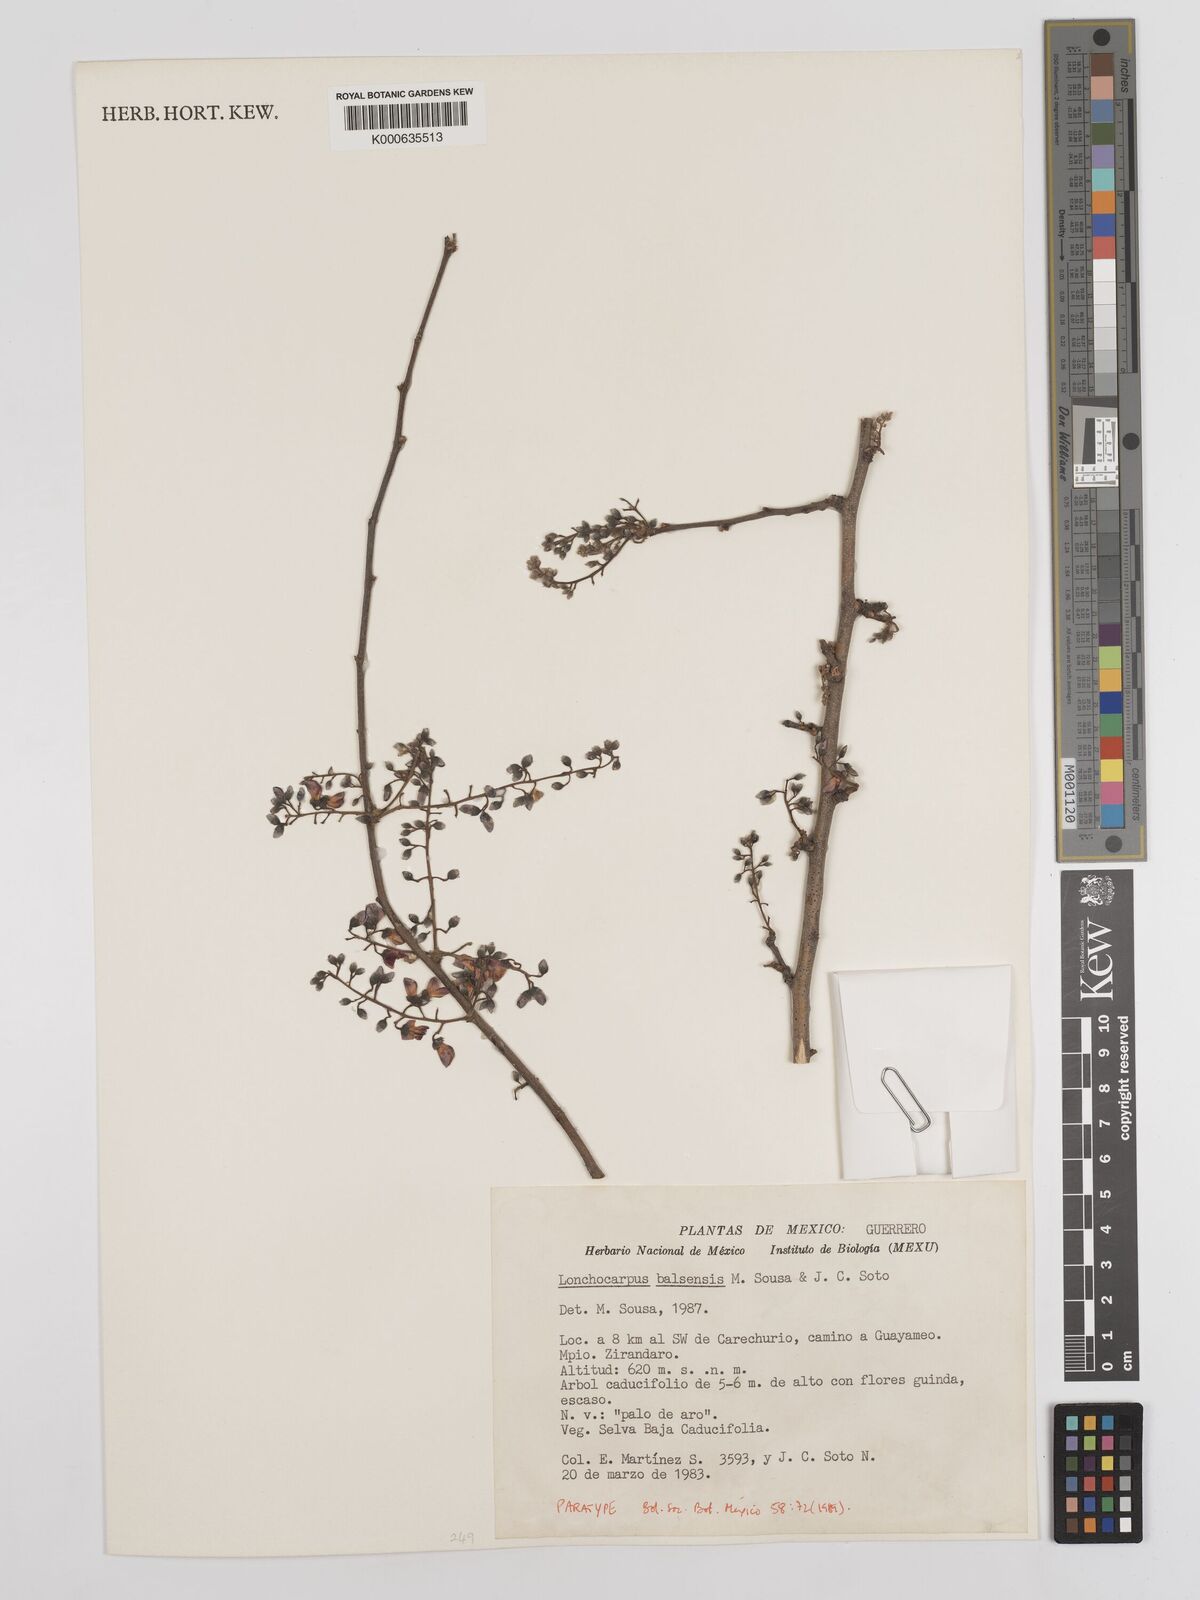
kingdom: Plantae
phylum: Tracheophyta
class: Magnoliopsida
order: Fabales
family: Fabaceae
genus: Lonchocarpus
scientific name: Lonchocarpus balsensis
